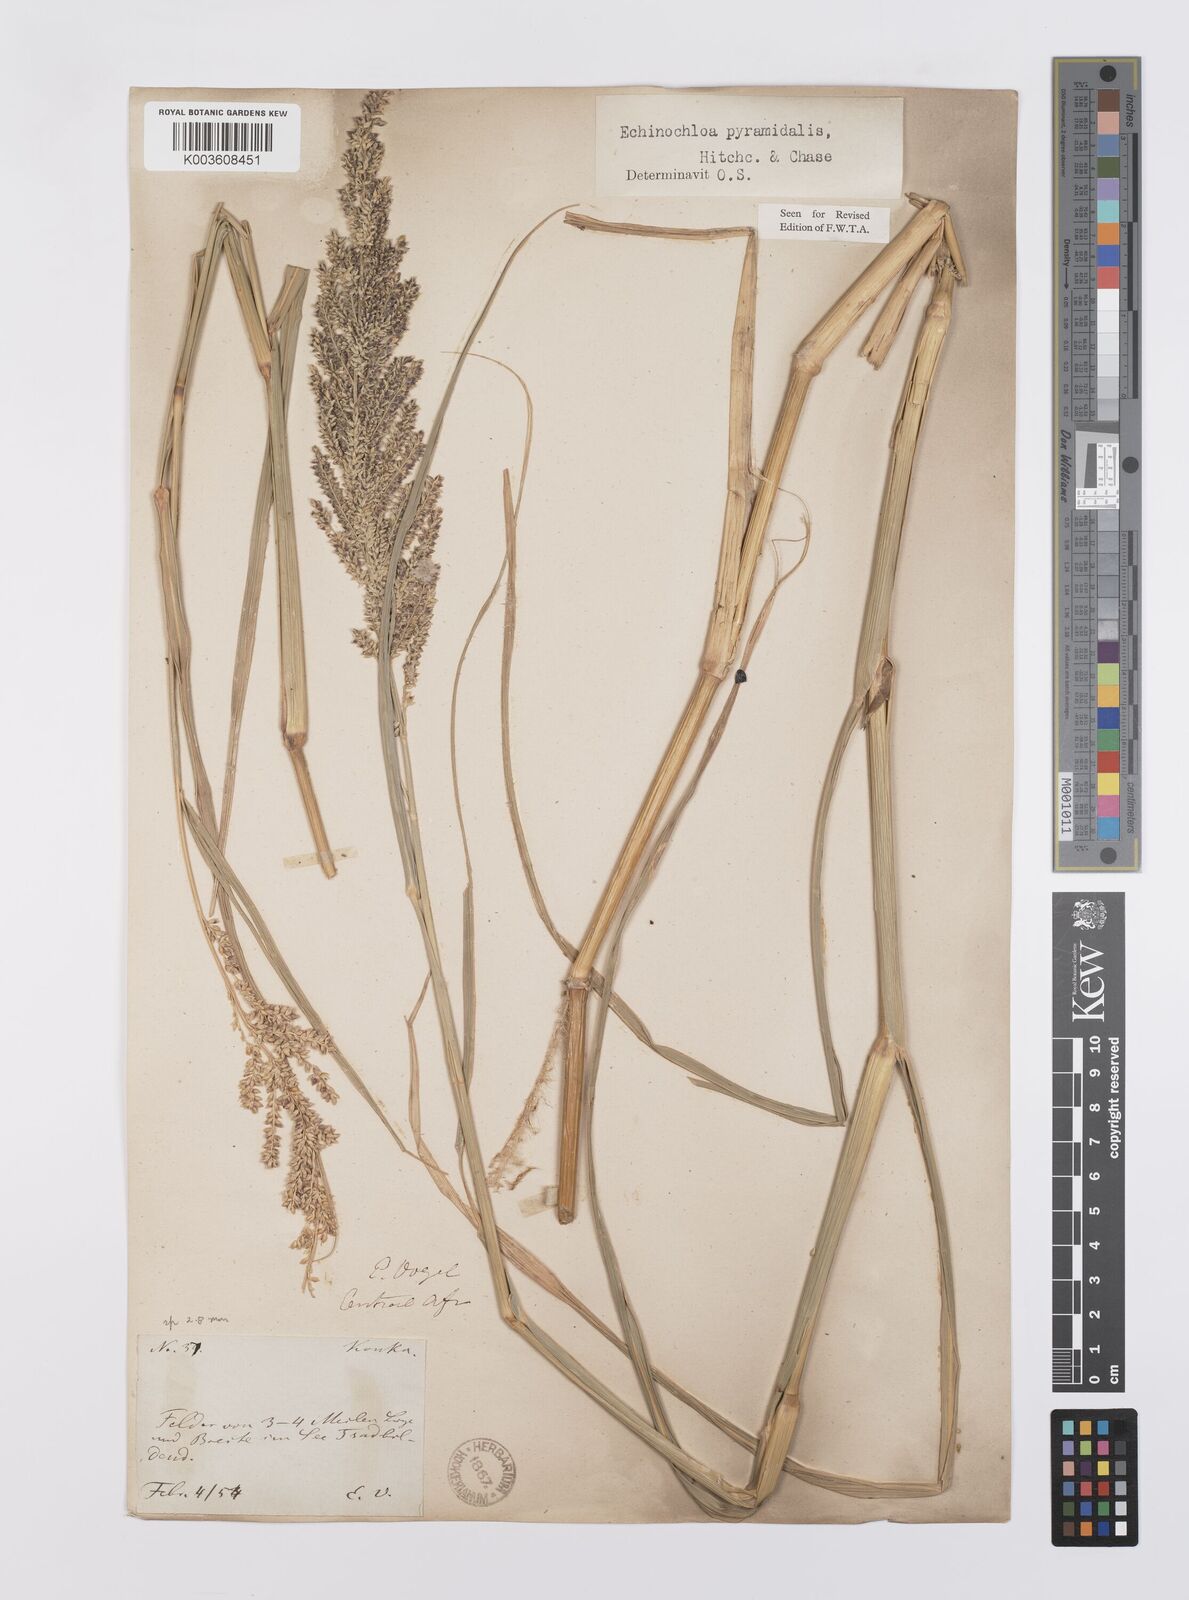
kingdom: Plantae
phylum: Tracheophyta
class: Liliopsida
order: Poales
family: Poaceae
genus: Echinochloa
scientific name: Echinochloa pyramidalis
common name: Antelope grass
